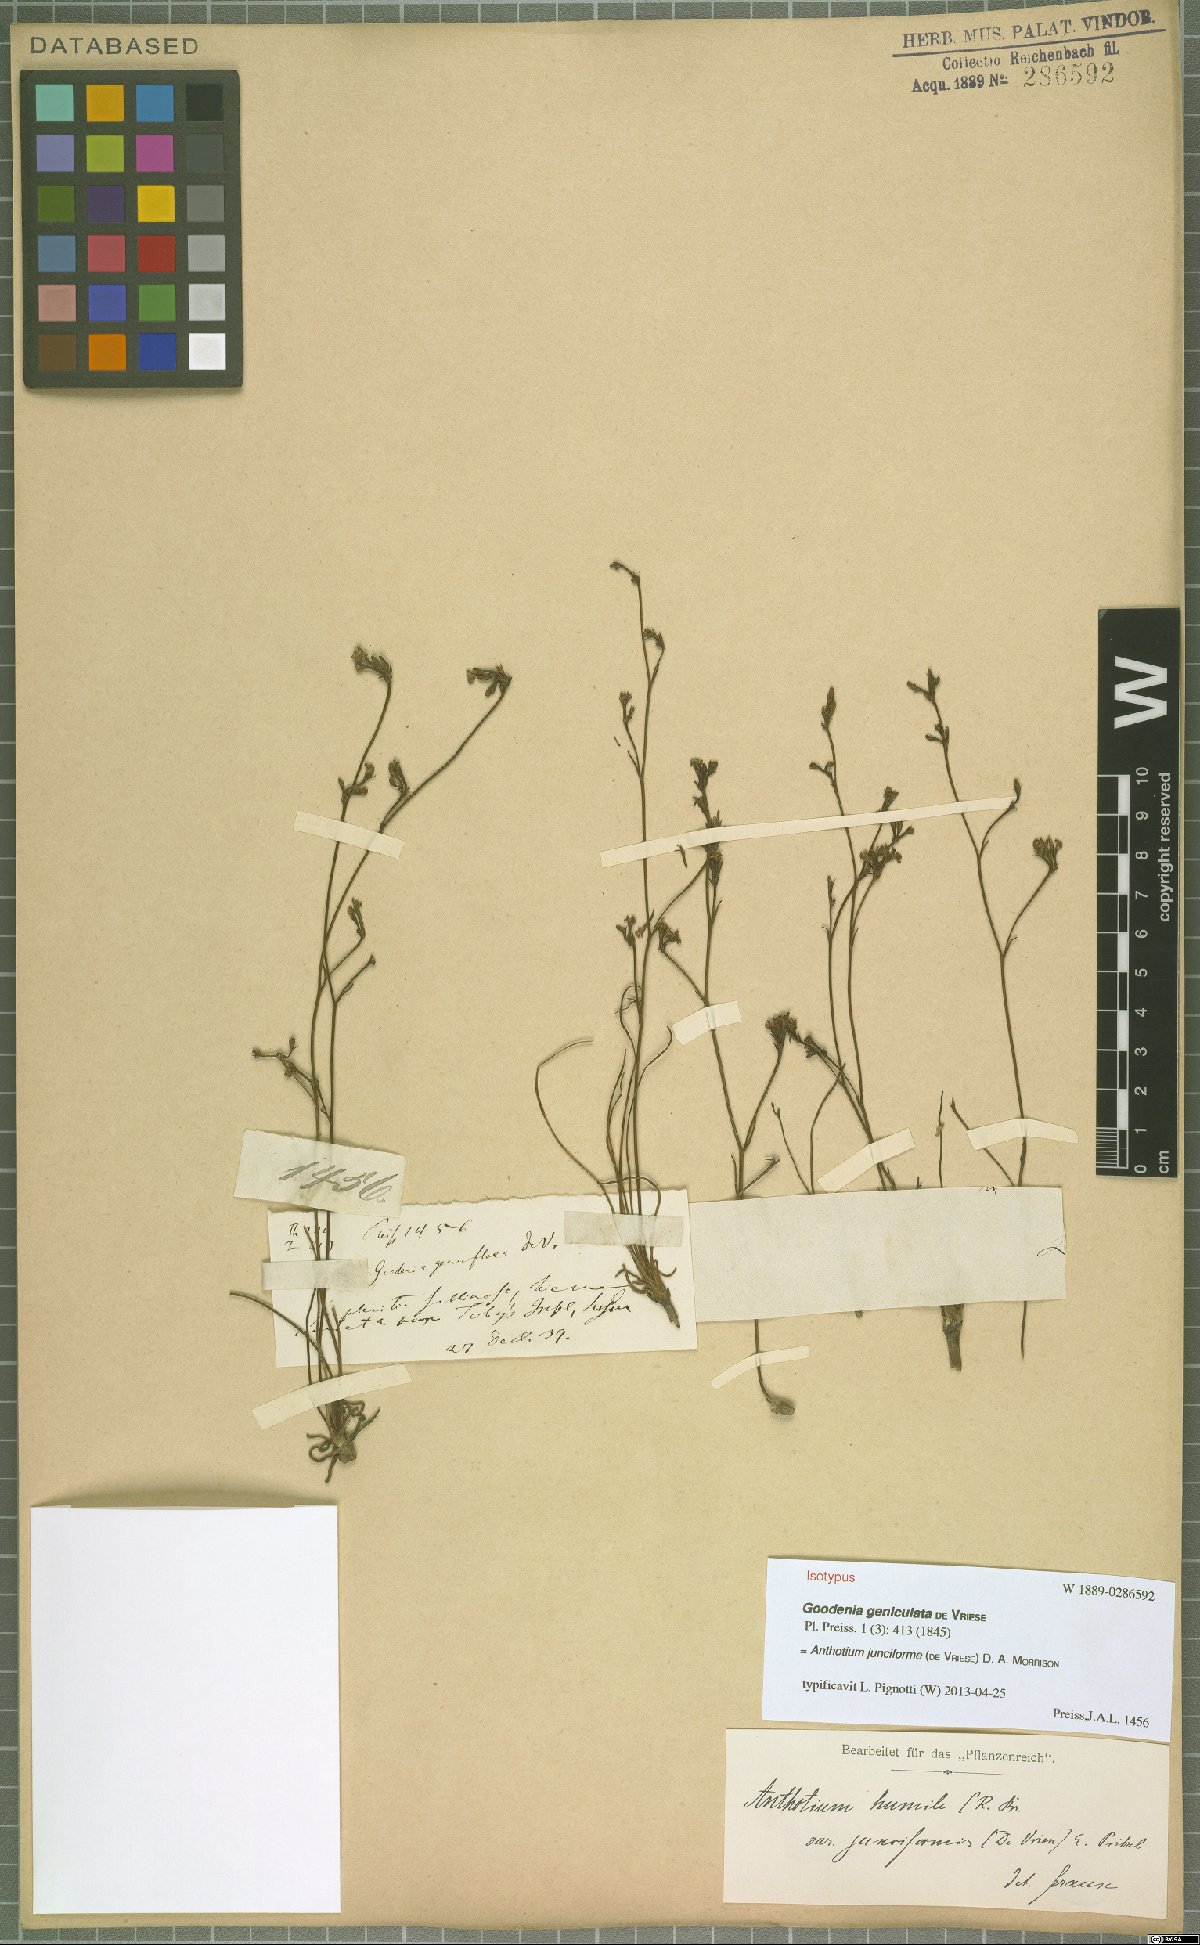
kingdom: Plantae
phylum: Tracheophyta
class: Magnoliopsida
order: Asterales
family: Goodeniaceae
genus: Anthotium
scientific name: Anthotium junciforme
